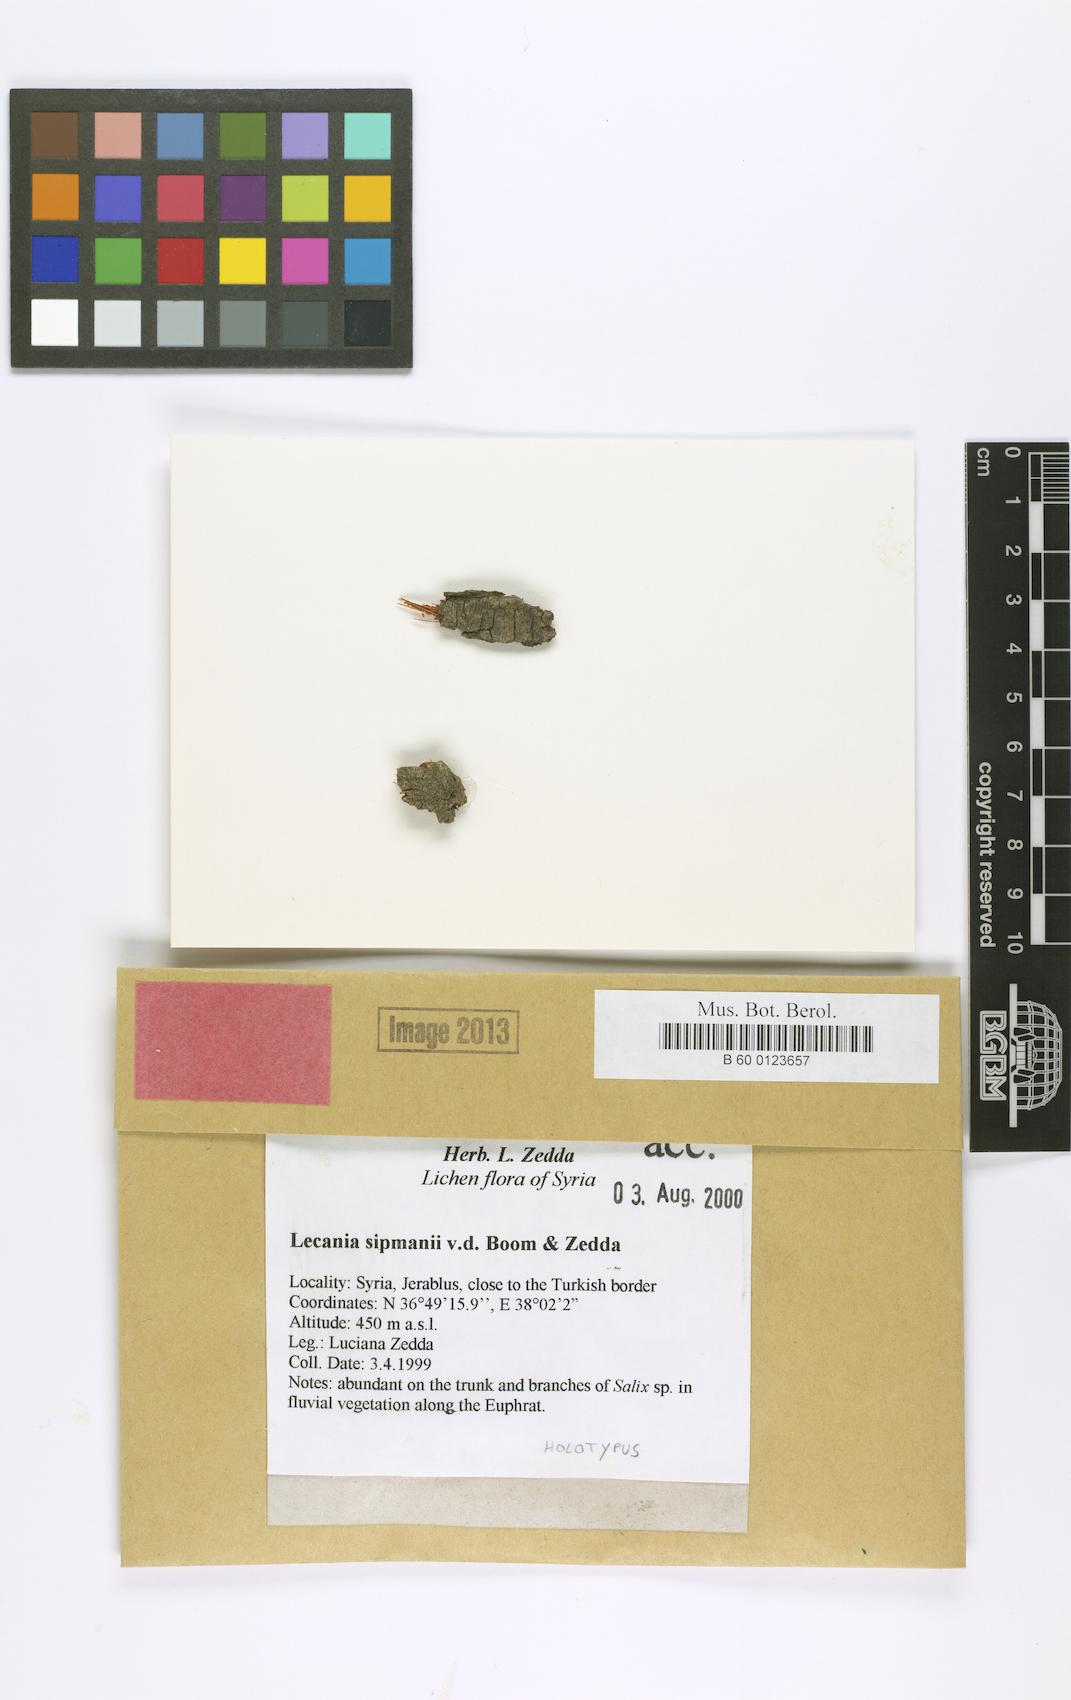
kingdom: Fungi
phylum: Ascomycota
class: Lecanoromycetes
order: Lecanorales
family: Ramalinaceae
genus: Lecania
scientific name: Lecania sipmanii
